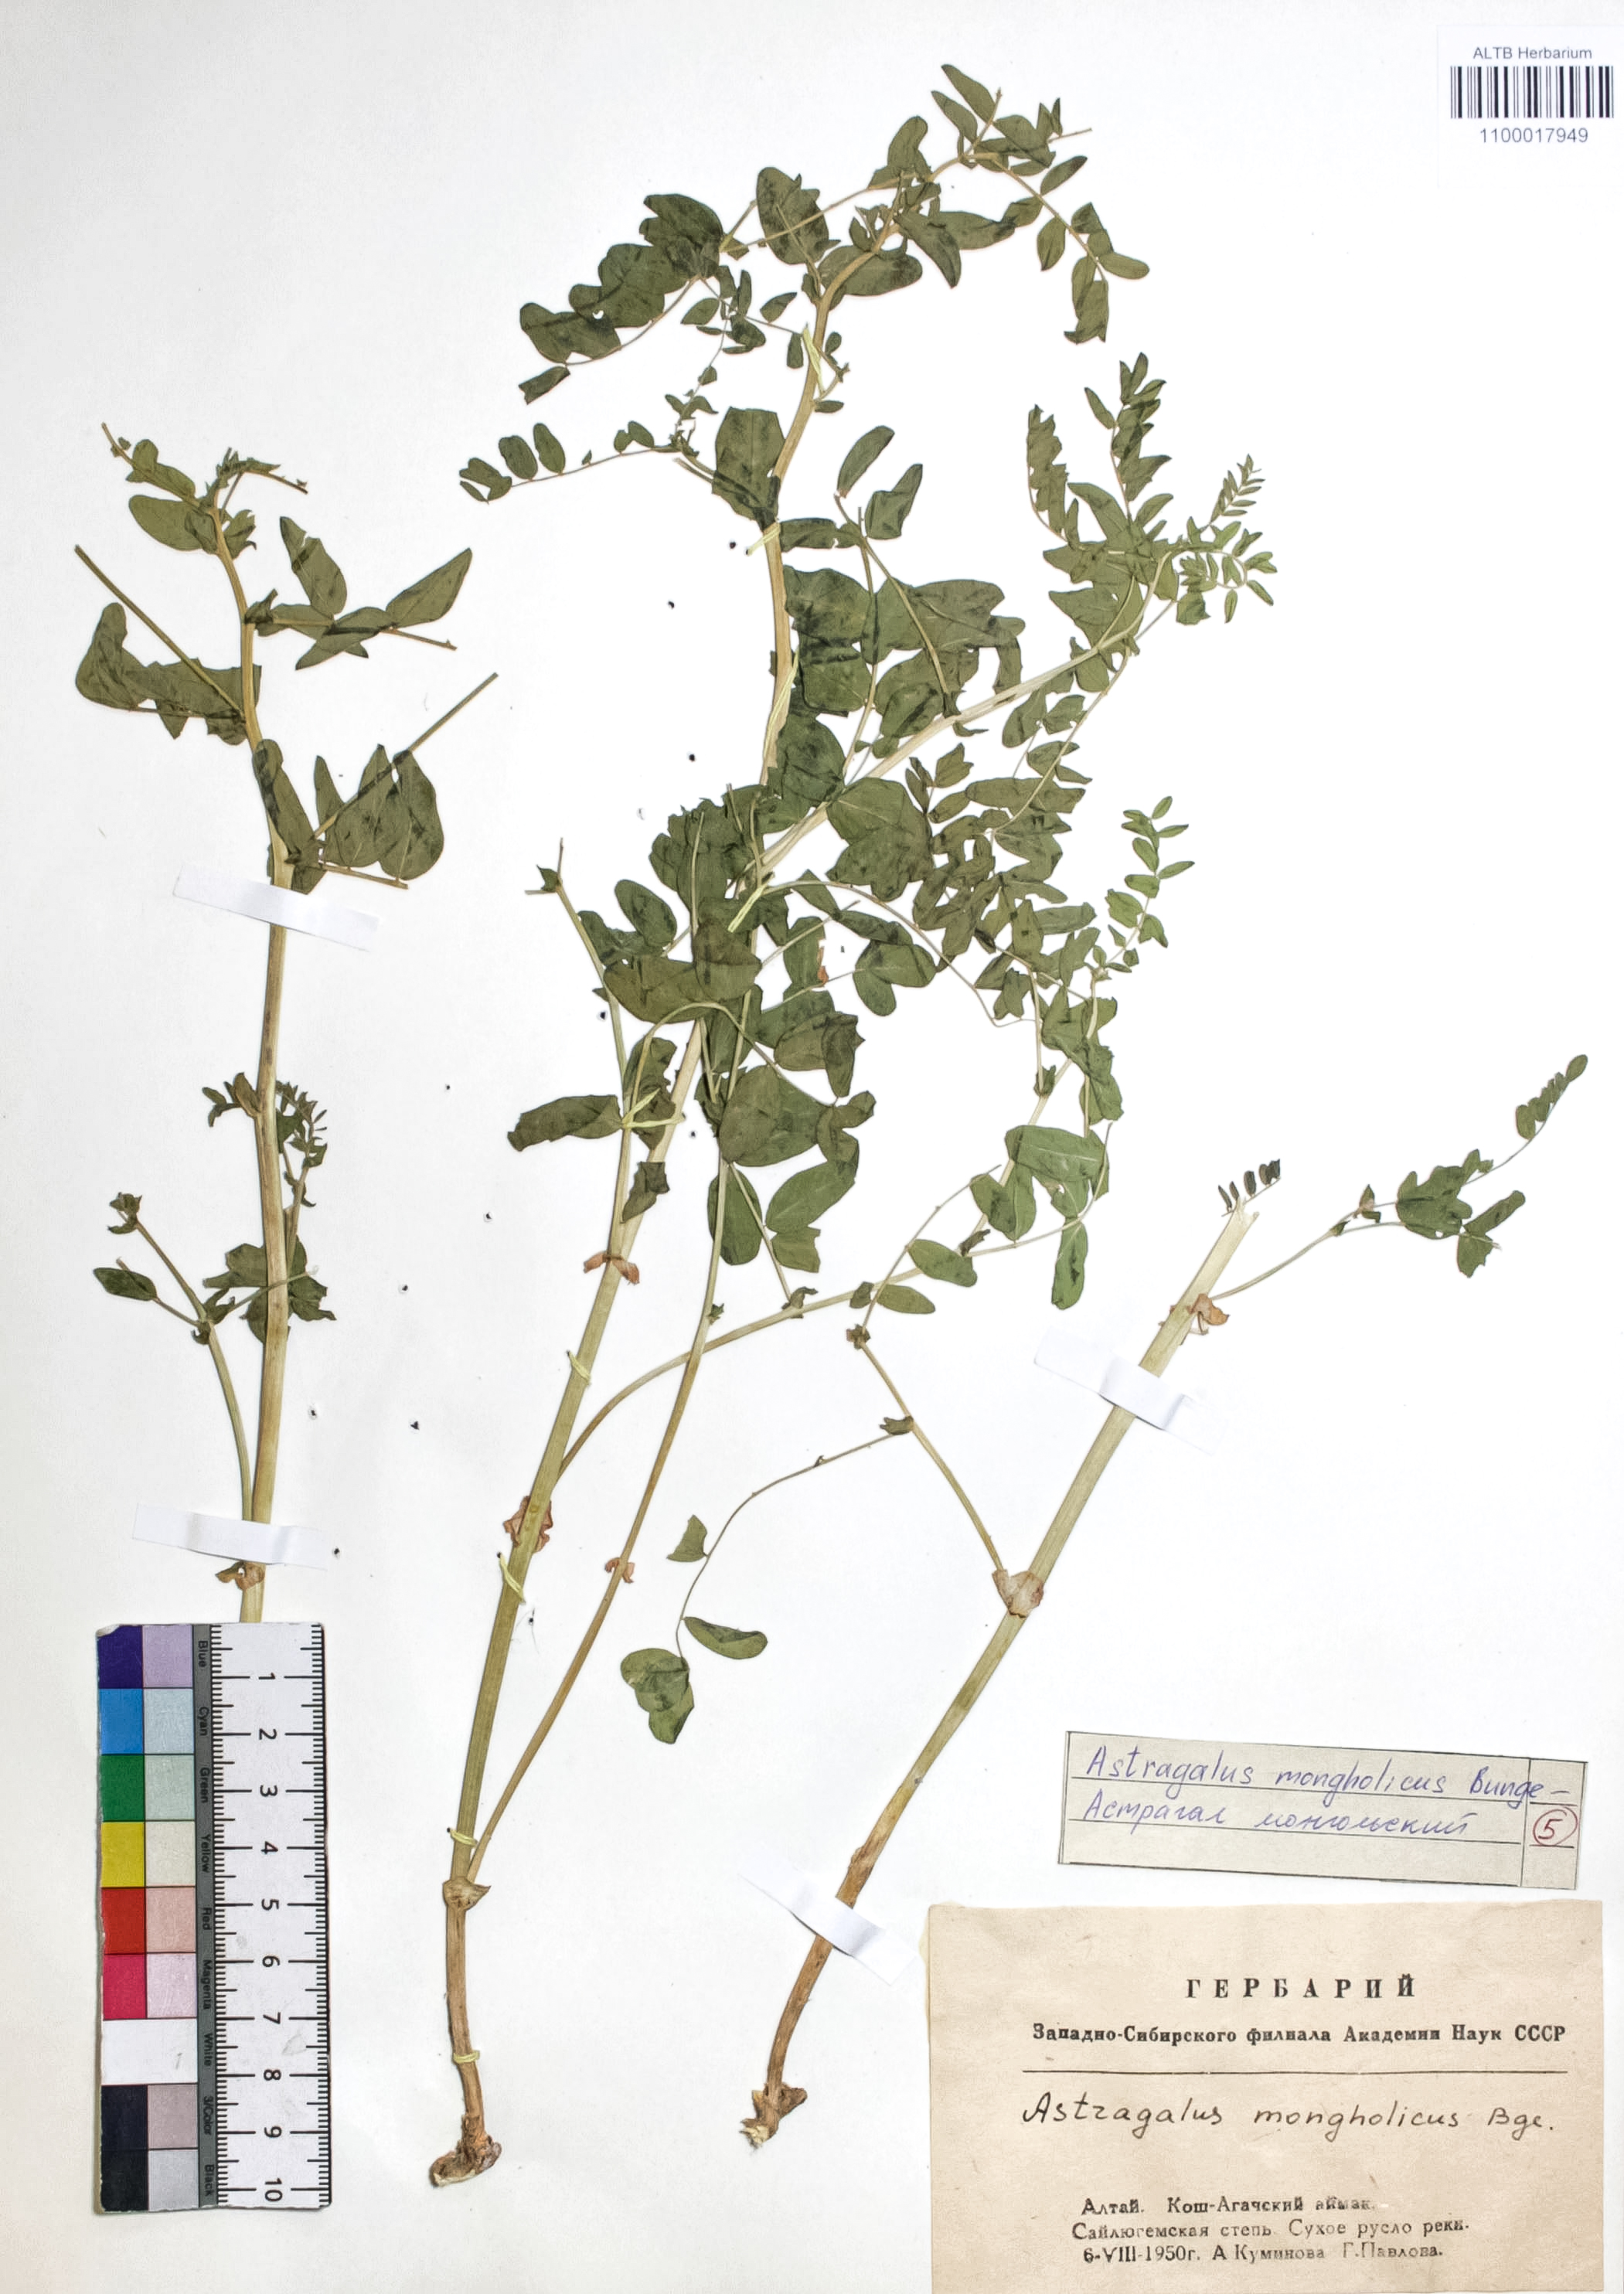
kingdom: Plantae
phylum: Tracheophyta
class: Magnoliopsida
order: Fabales
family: Fabaceae
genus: Astragalus
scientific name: Astragalus mongolicus
